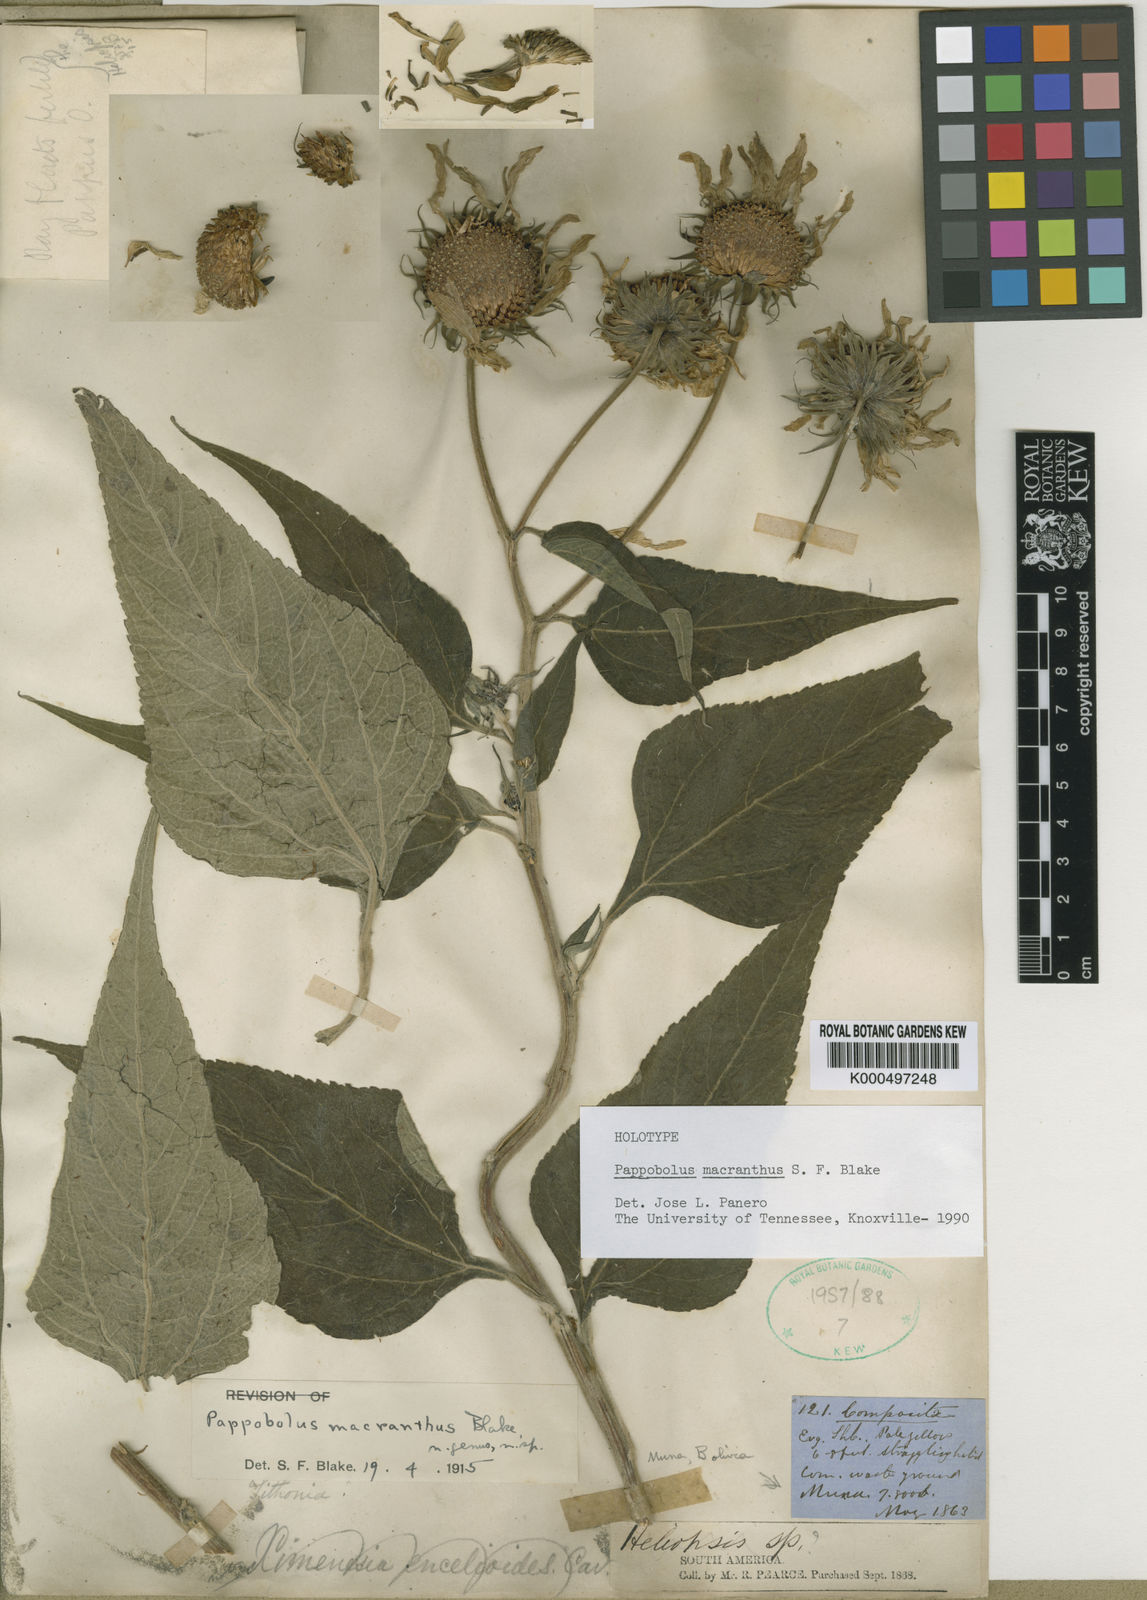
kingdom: Plantae
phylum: Tracheophyta
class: Magnoliopsida
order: Asterales
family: Asteraceae
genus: Pappobolus
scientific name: Pappobolus macranthus
